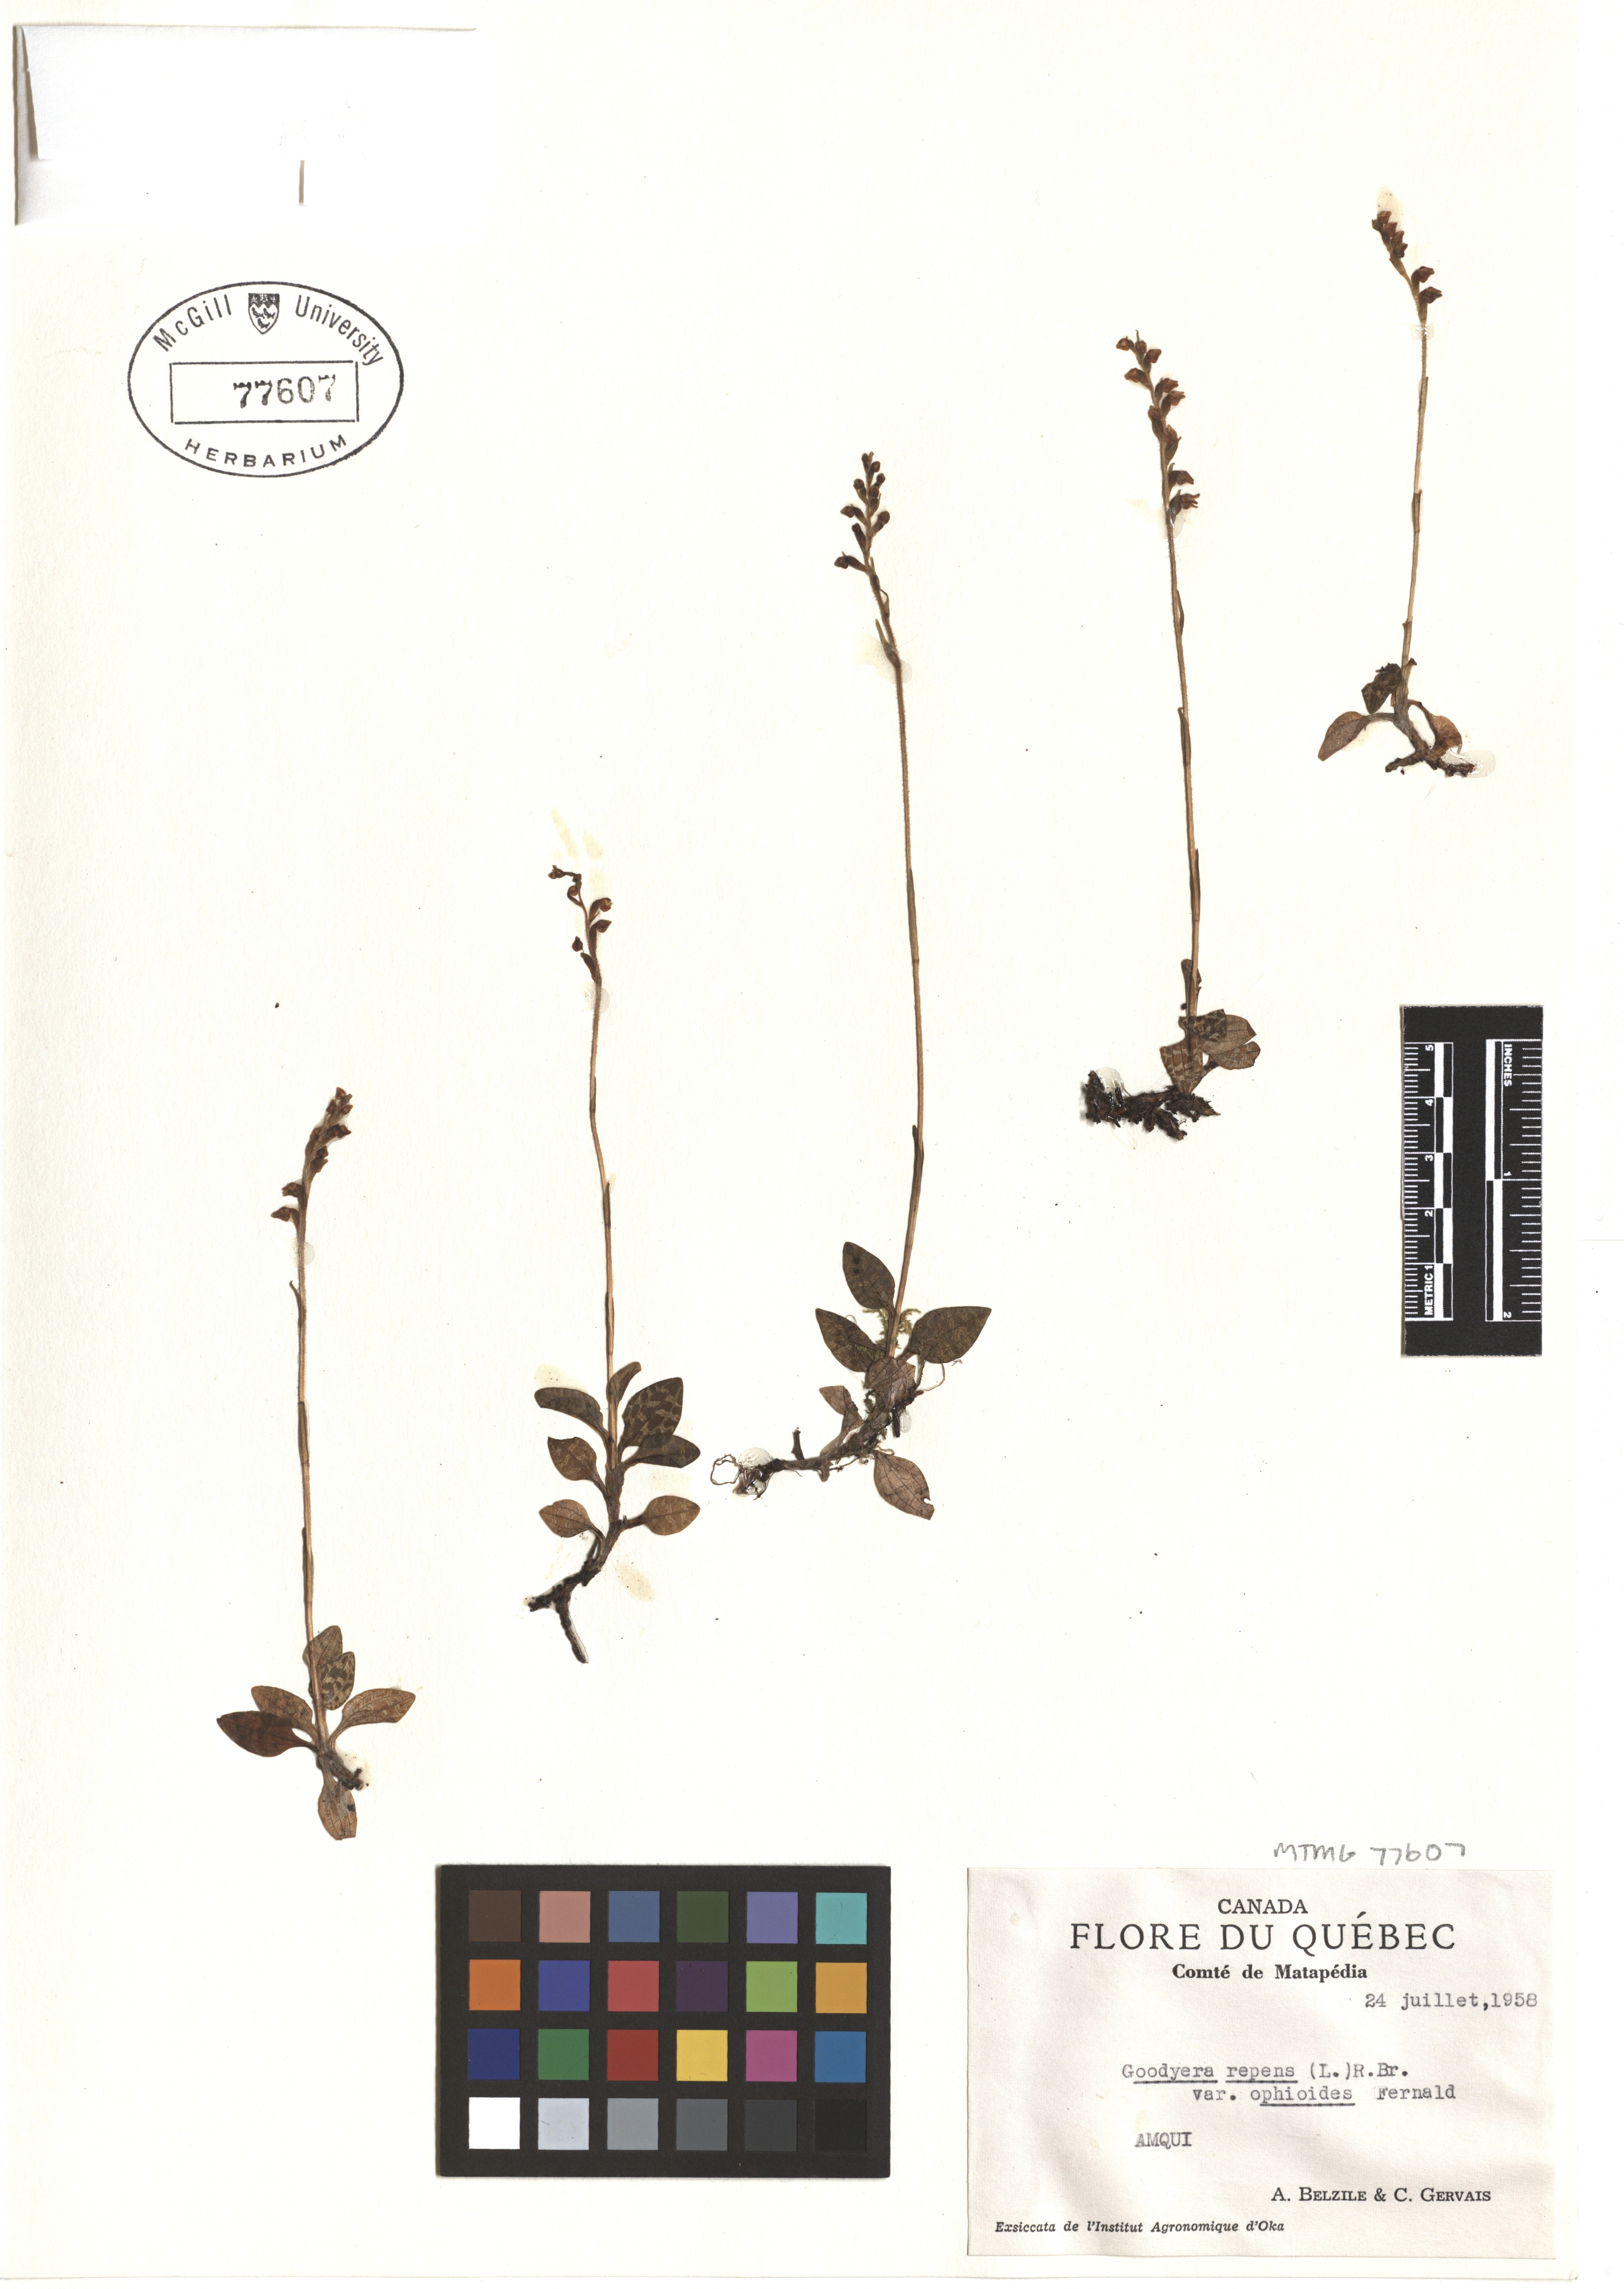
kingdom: Plantae
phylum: Tracheophyta
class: Liliopsida
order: Asparagales
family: Orchidaceae
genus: Goodyera
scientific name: Goodyera repens
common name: Creeping lady's-tresses
